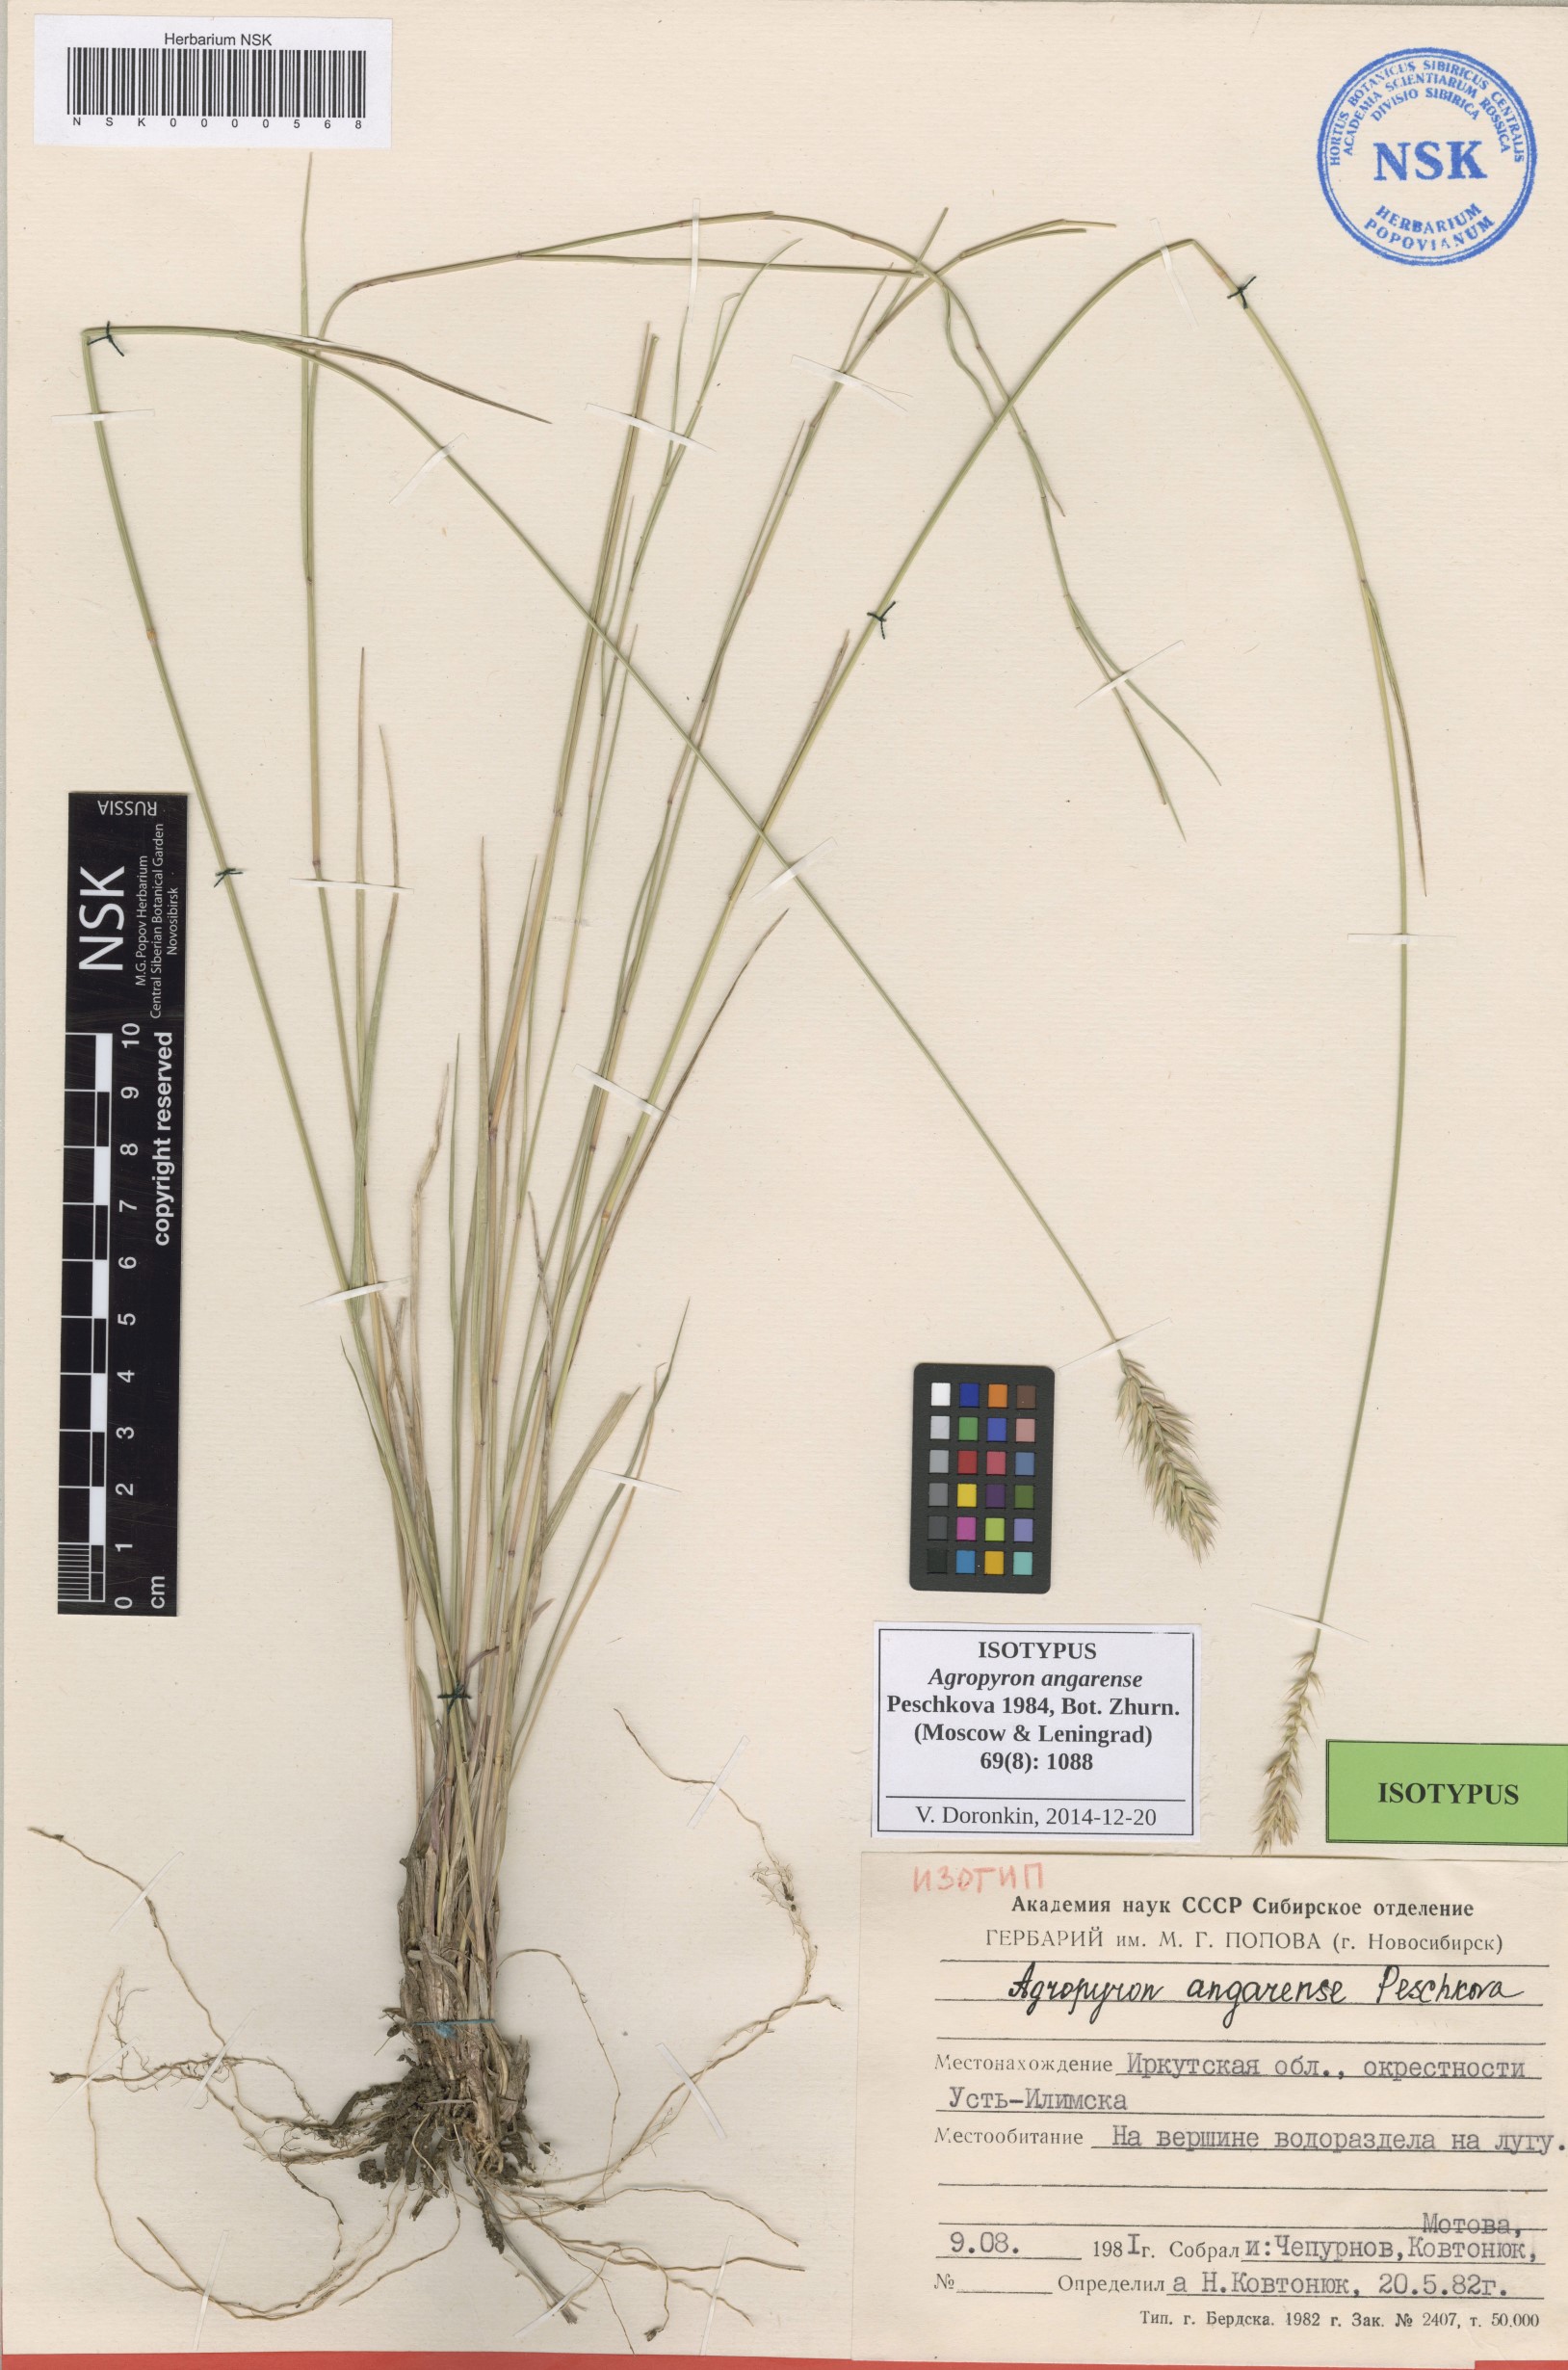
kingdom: Plantae
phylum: Tracheophyta
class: Liliopsida
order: Poales
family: Poaceae
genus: Agropyron
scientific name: Agropyron desertorum
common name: Desert wheatgrass
